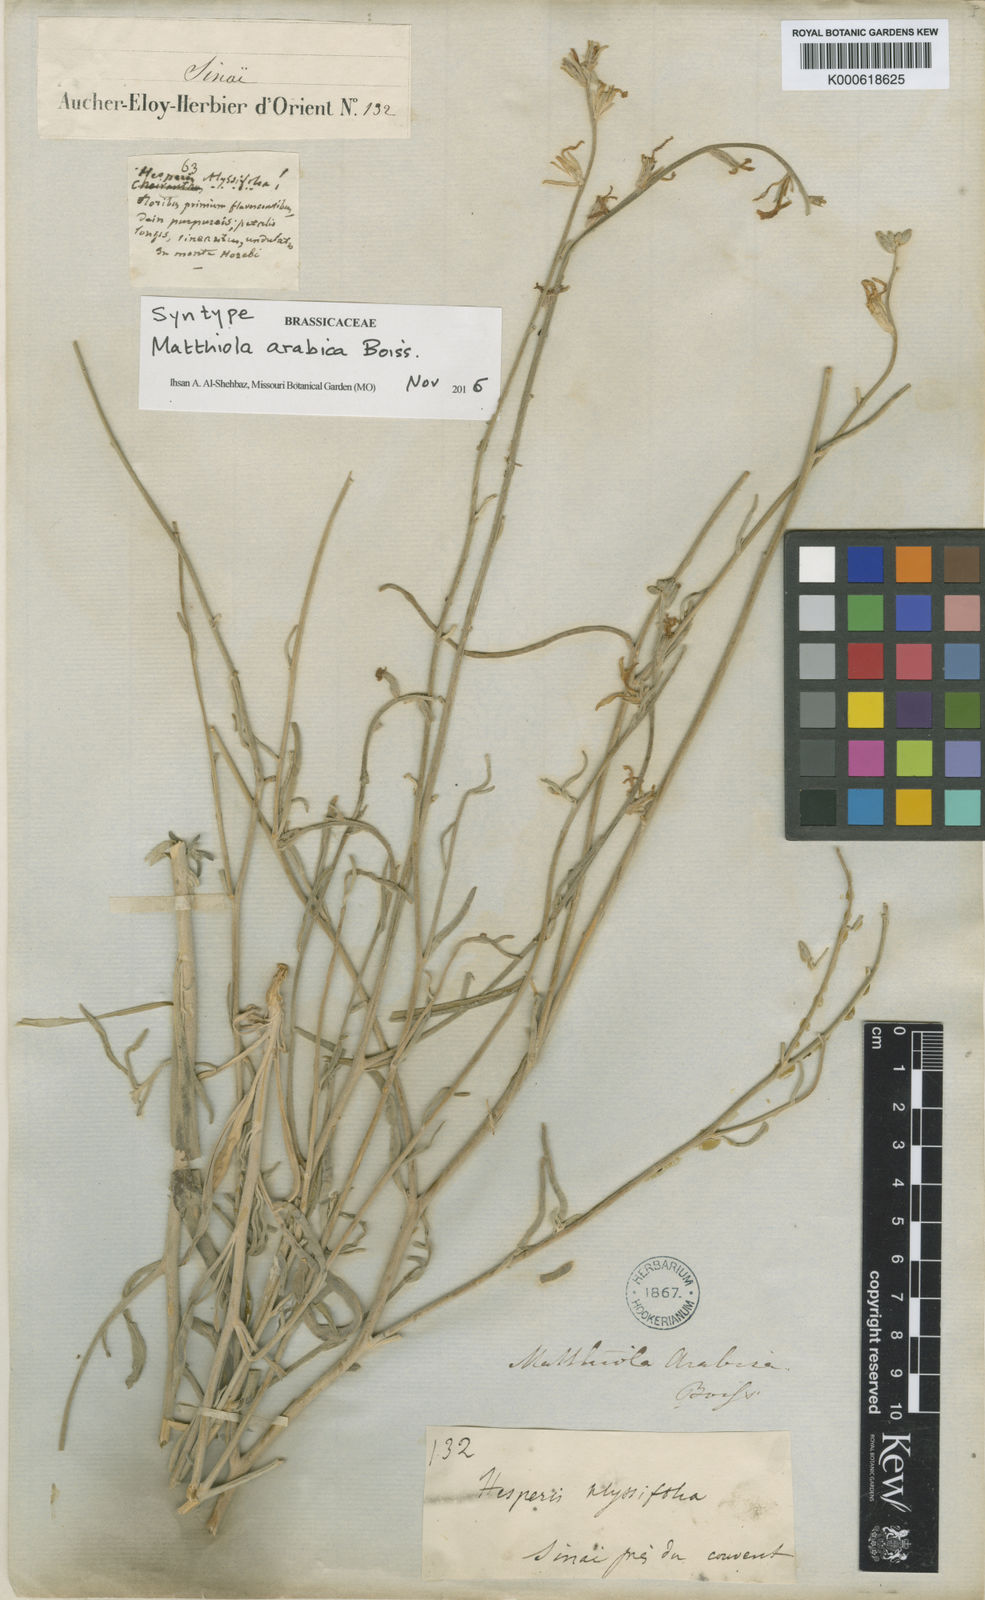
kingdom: Plantae
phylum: Tracheophyta
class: Magnoliopsida
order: Brassicales
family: Brassicaceae
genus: Matthiola
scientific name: Matthiola arabica
